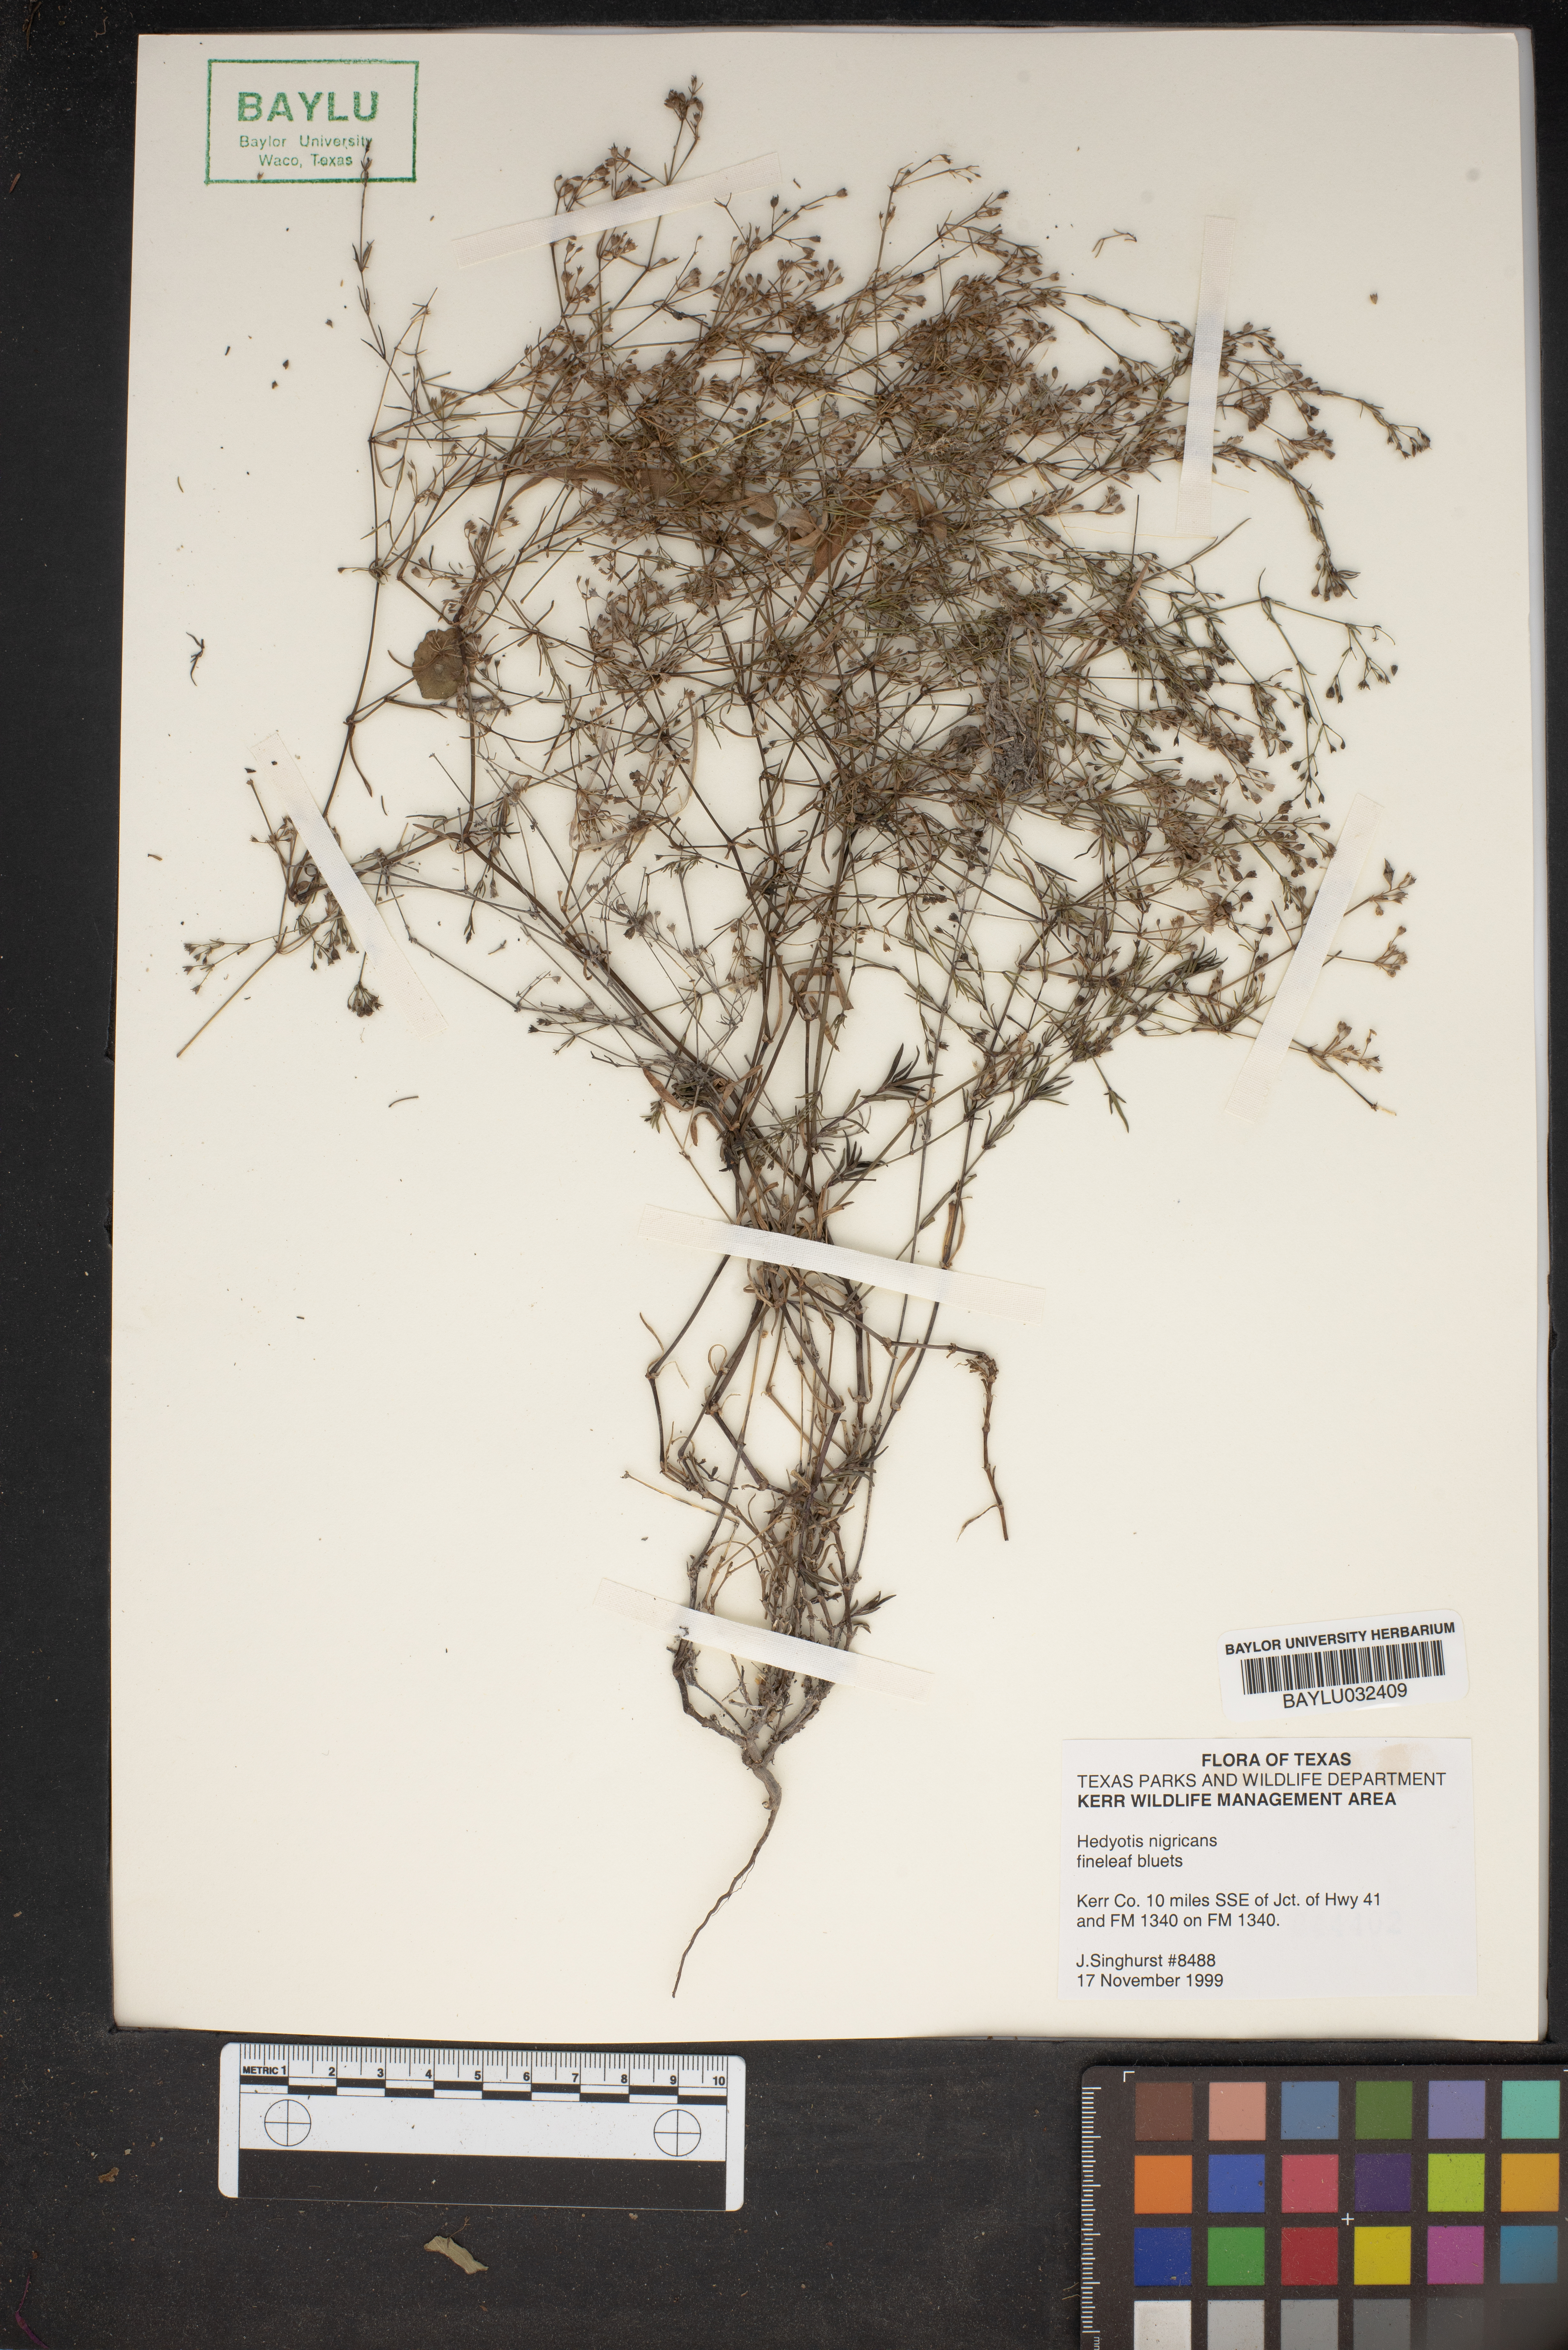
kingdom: Plantae
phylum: Tracheophyta
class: Magnoliopsida
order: Gentianales
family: Rubiaceae
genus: Stenaria
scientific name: Stenaria nigricans
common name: Diamondflowers
